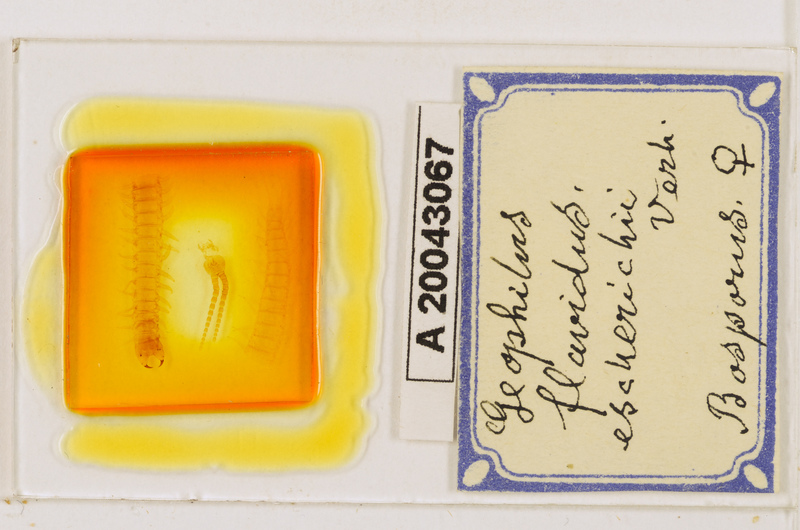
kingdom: Animalia
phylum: Arthropoda
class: Chilopoda
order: Geophilomorpha
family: Geophilidae
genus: Clinopodes
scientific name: Clinopodes flavidus
